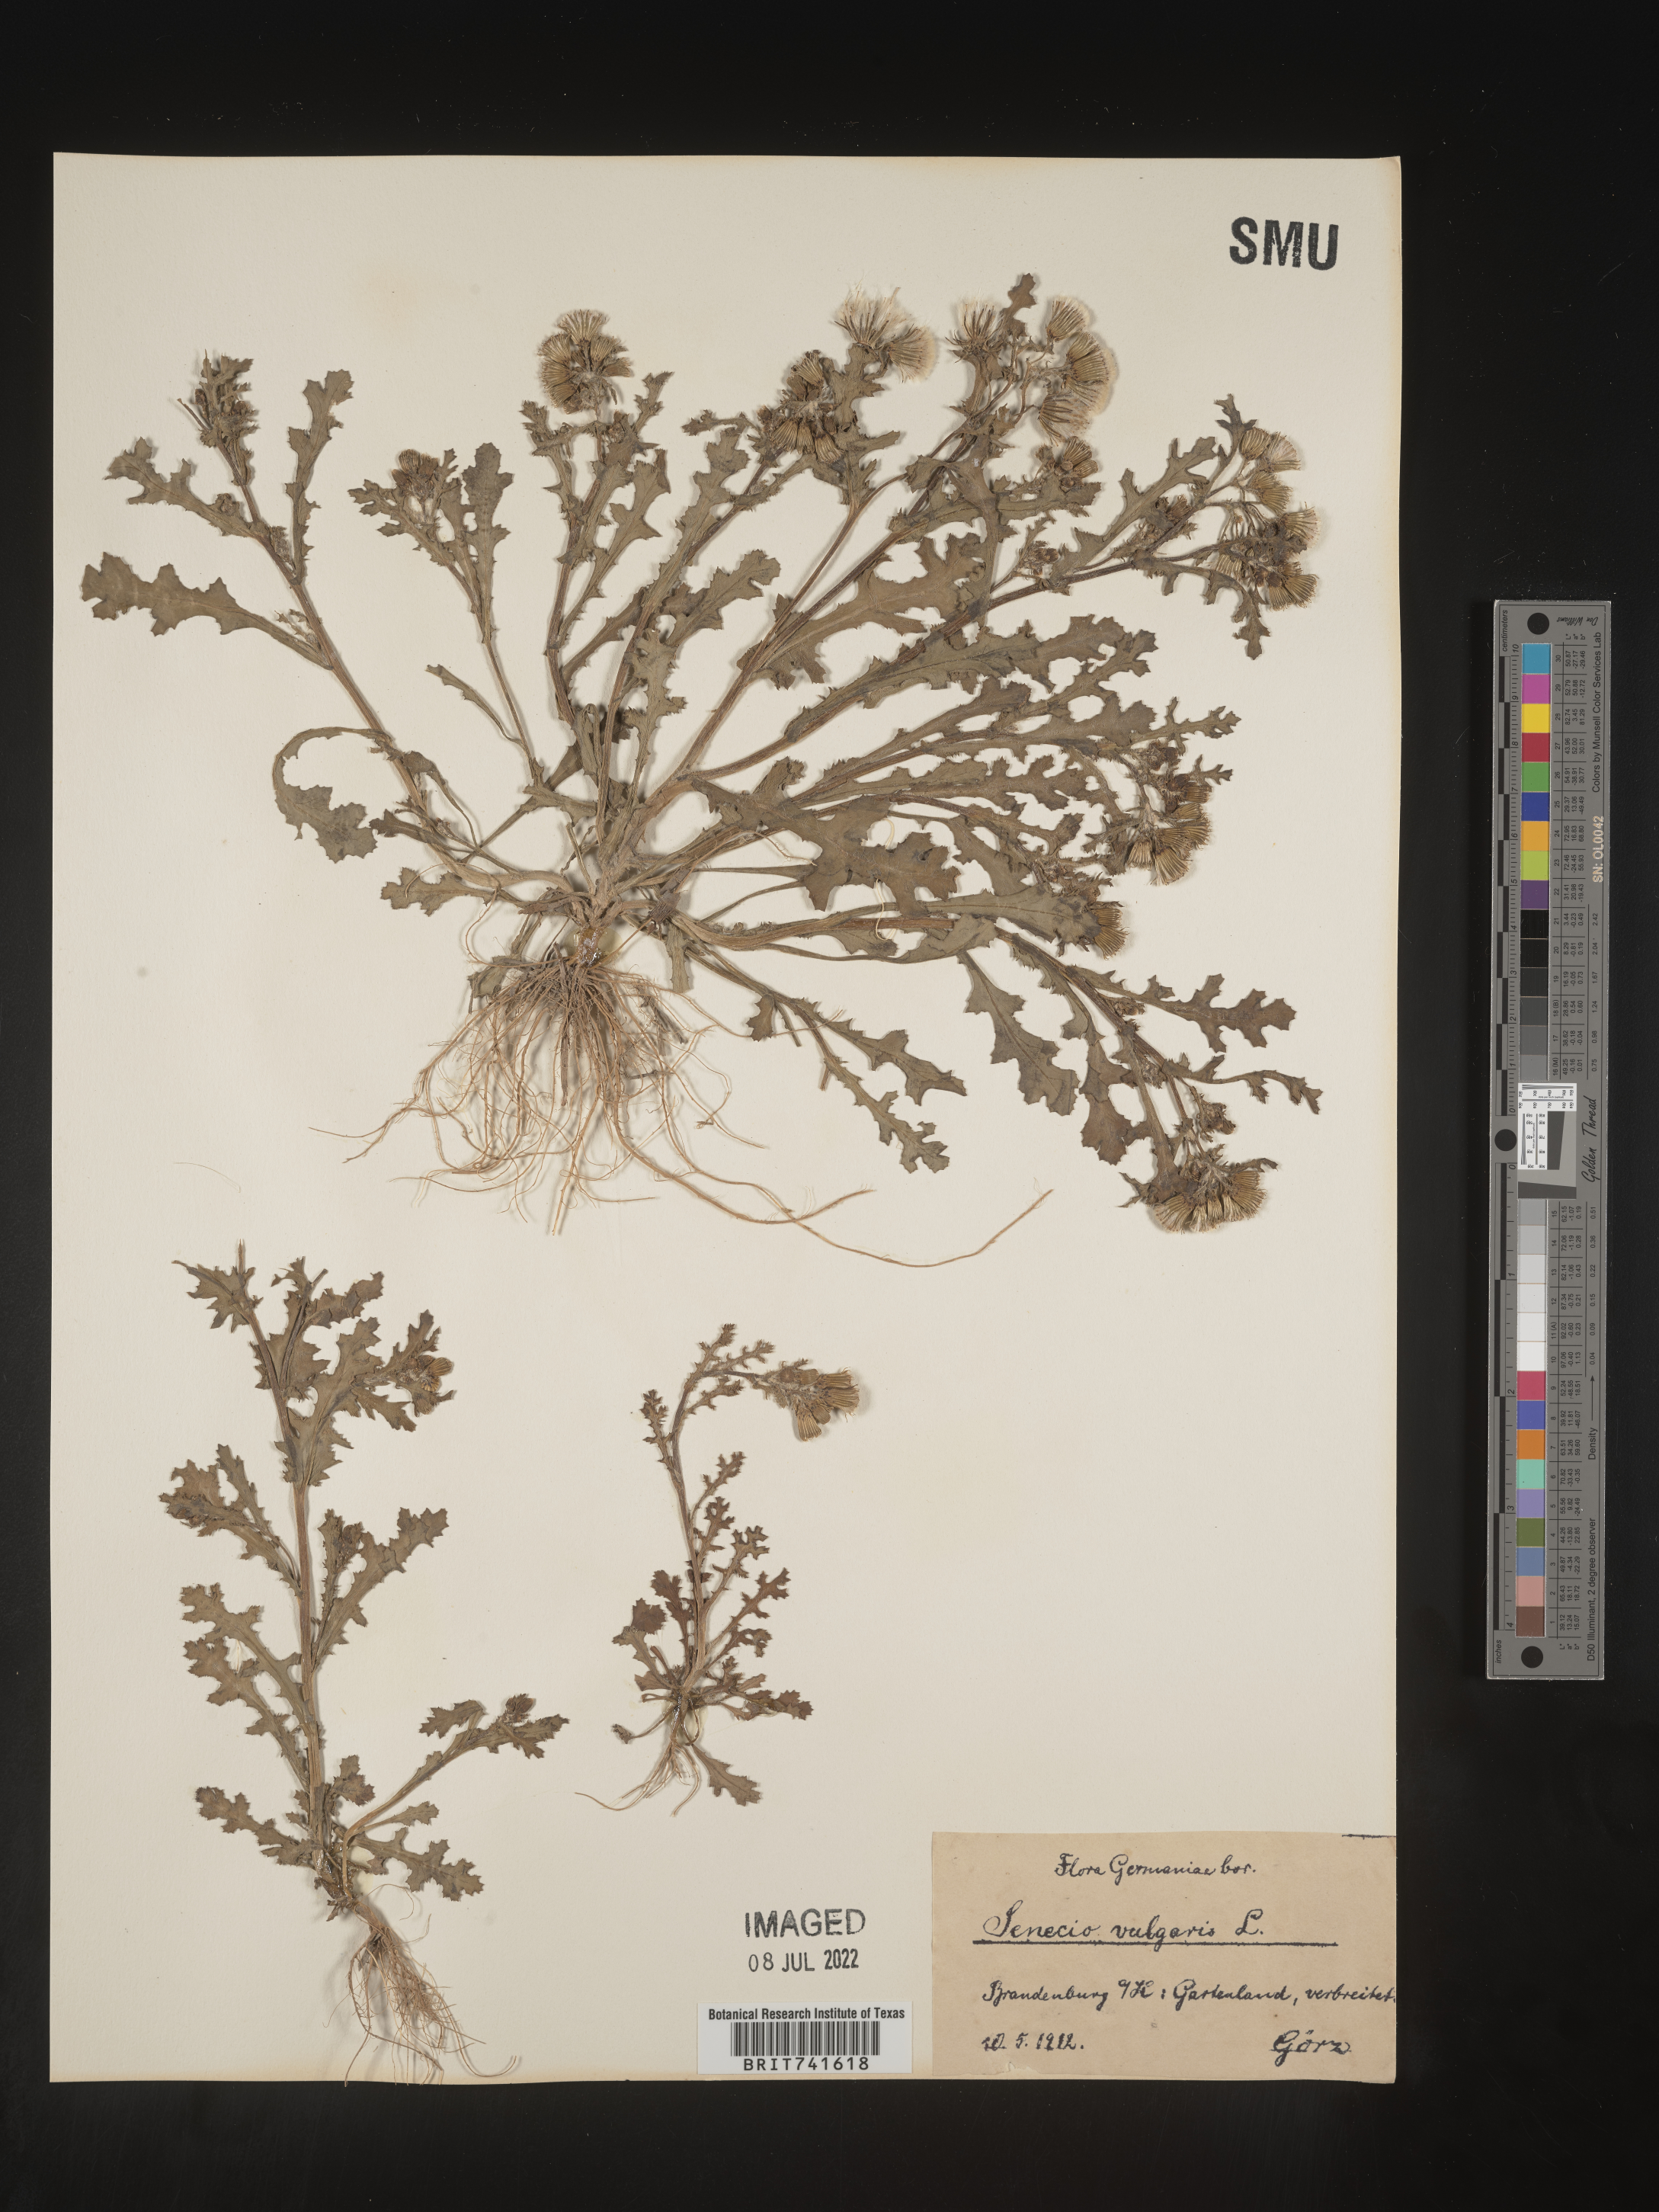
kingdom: Plantae
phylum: Tracheophyta
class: Magnoliopsida
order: Asterales
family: Asteraceae
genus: Senecio
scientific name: Senecio
